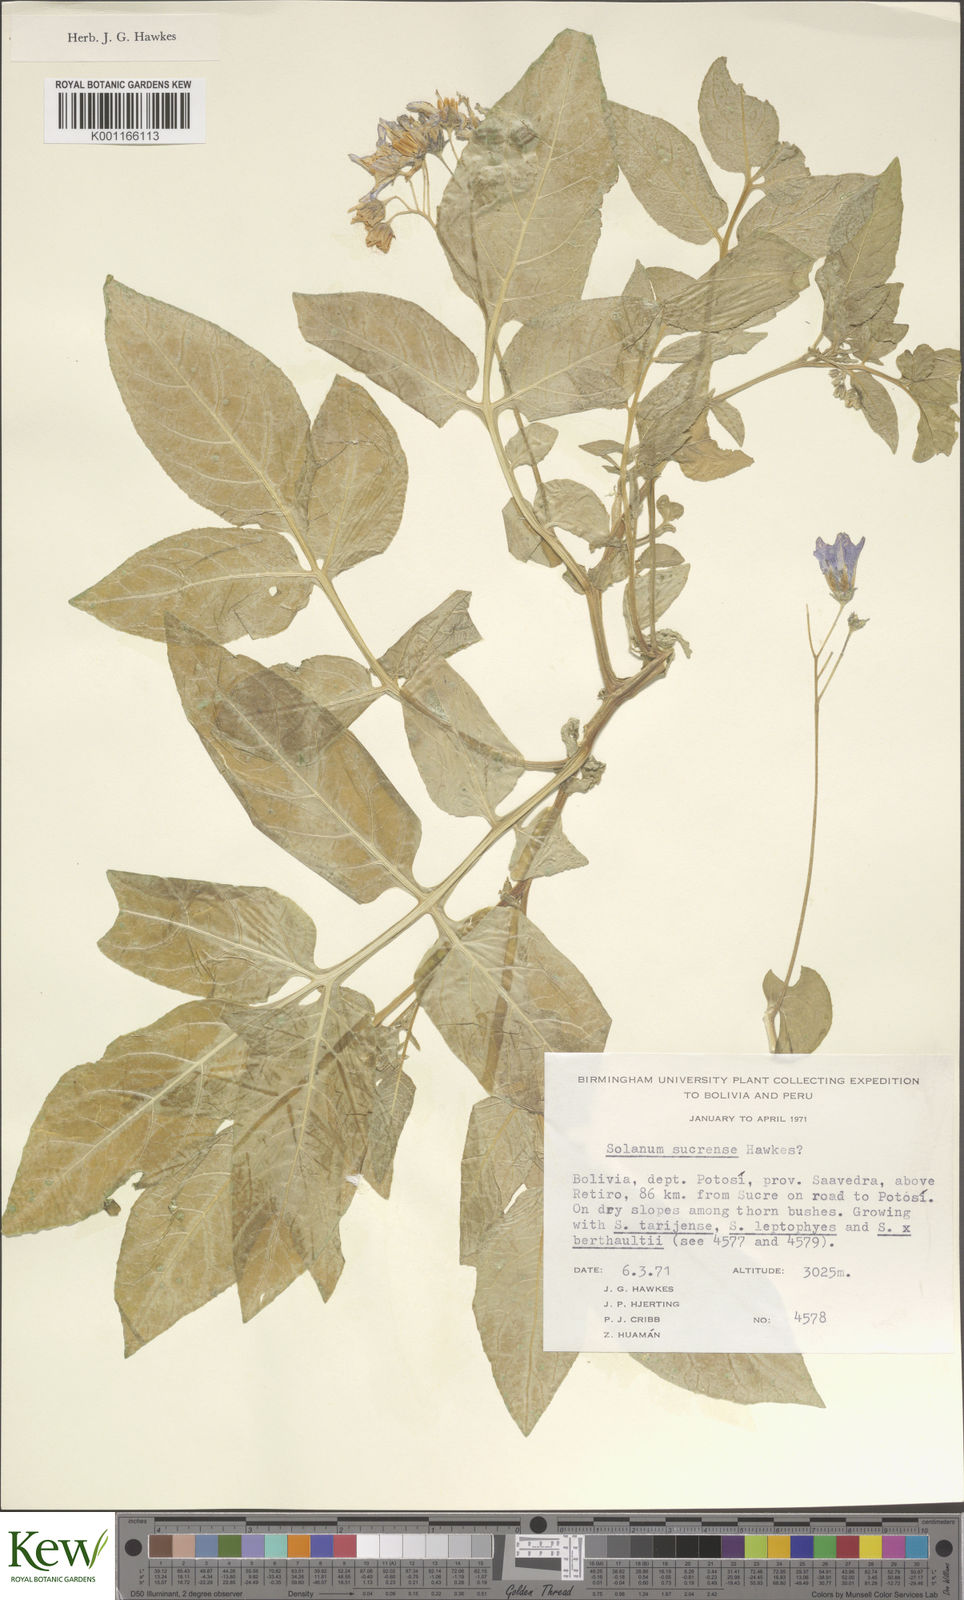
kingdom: Plantae
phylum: Tracheophyta
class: Magnoliopsida
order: Solanales
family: Solanaceae
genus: Solanum
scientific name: Solanum brevicaule
